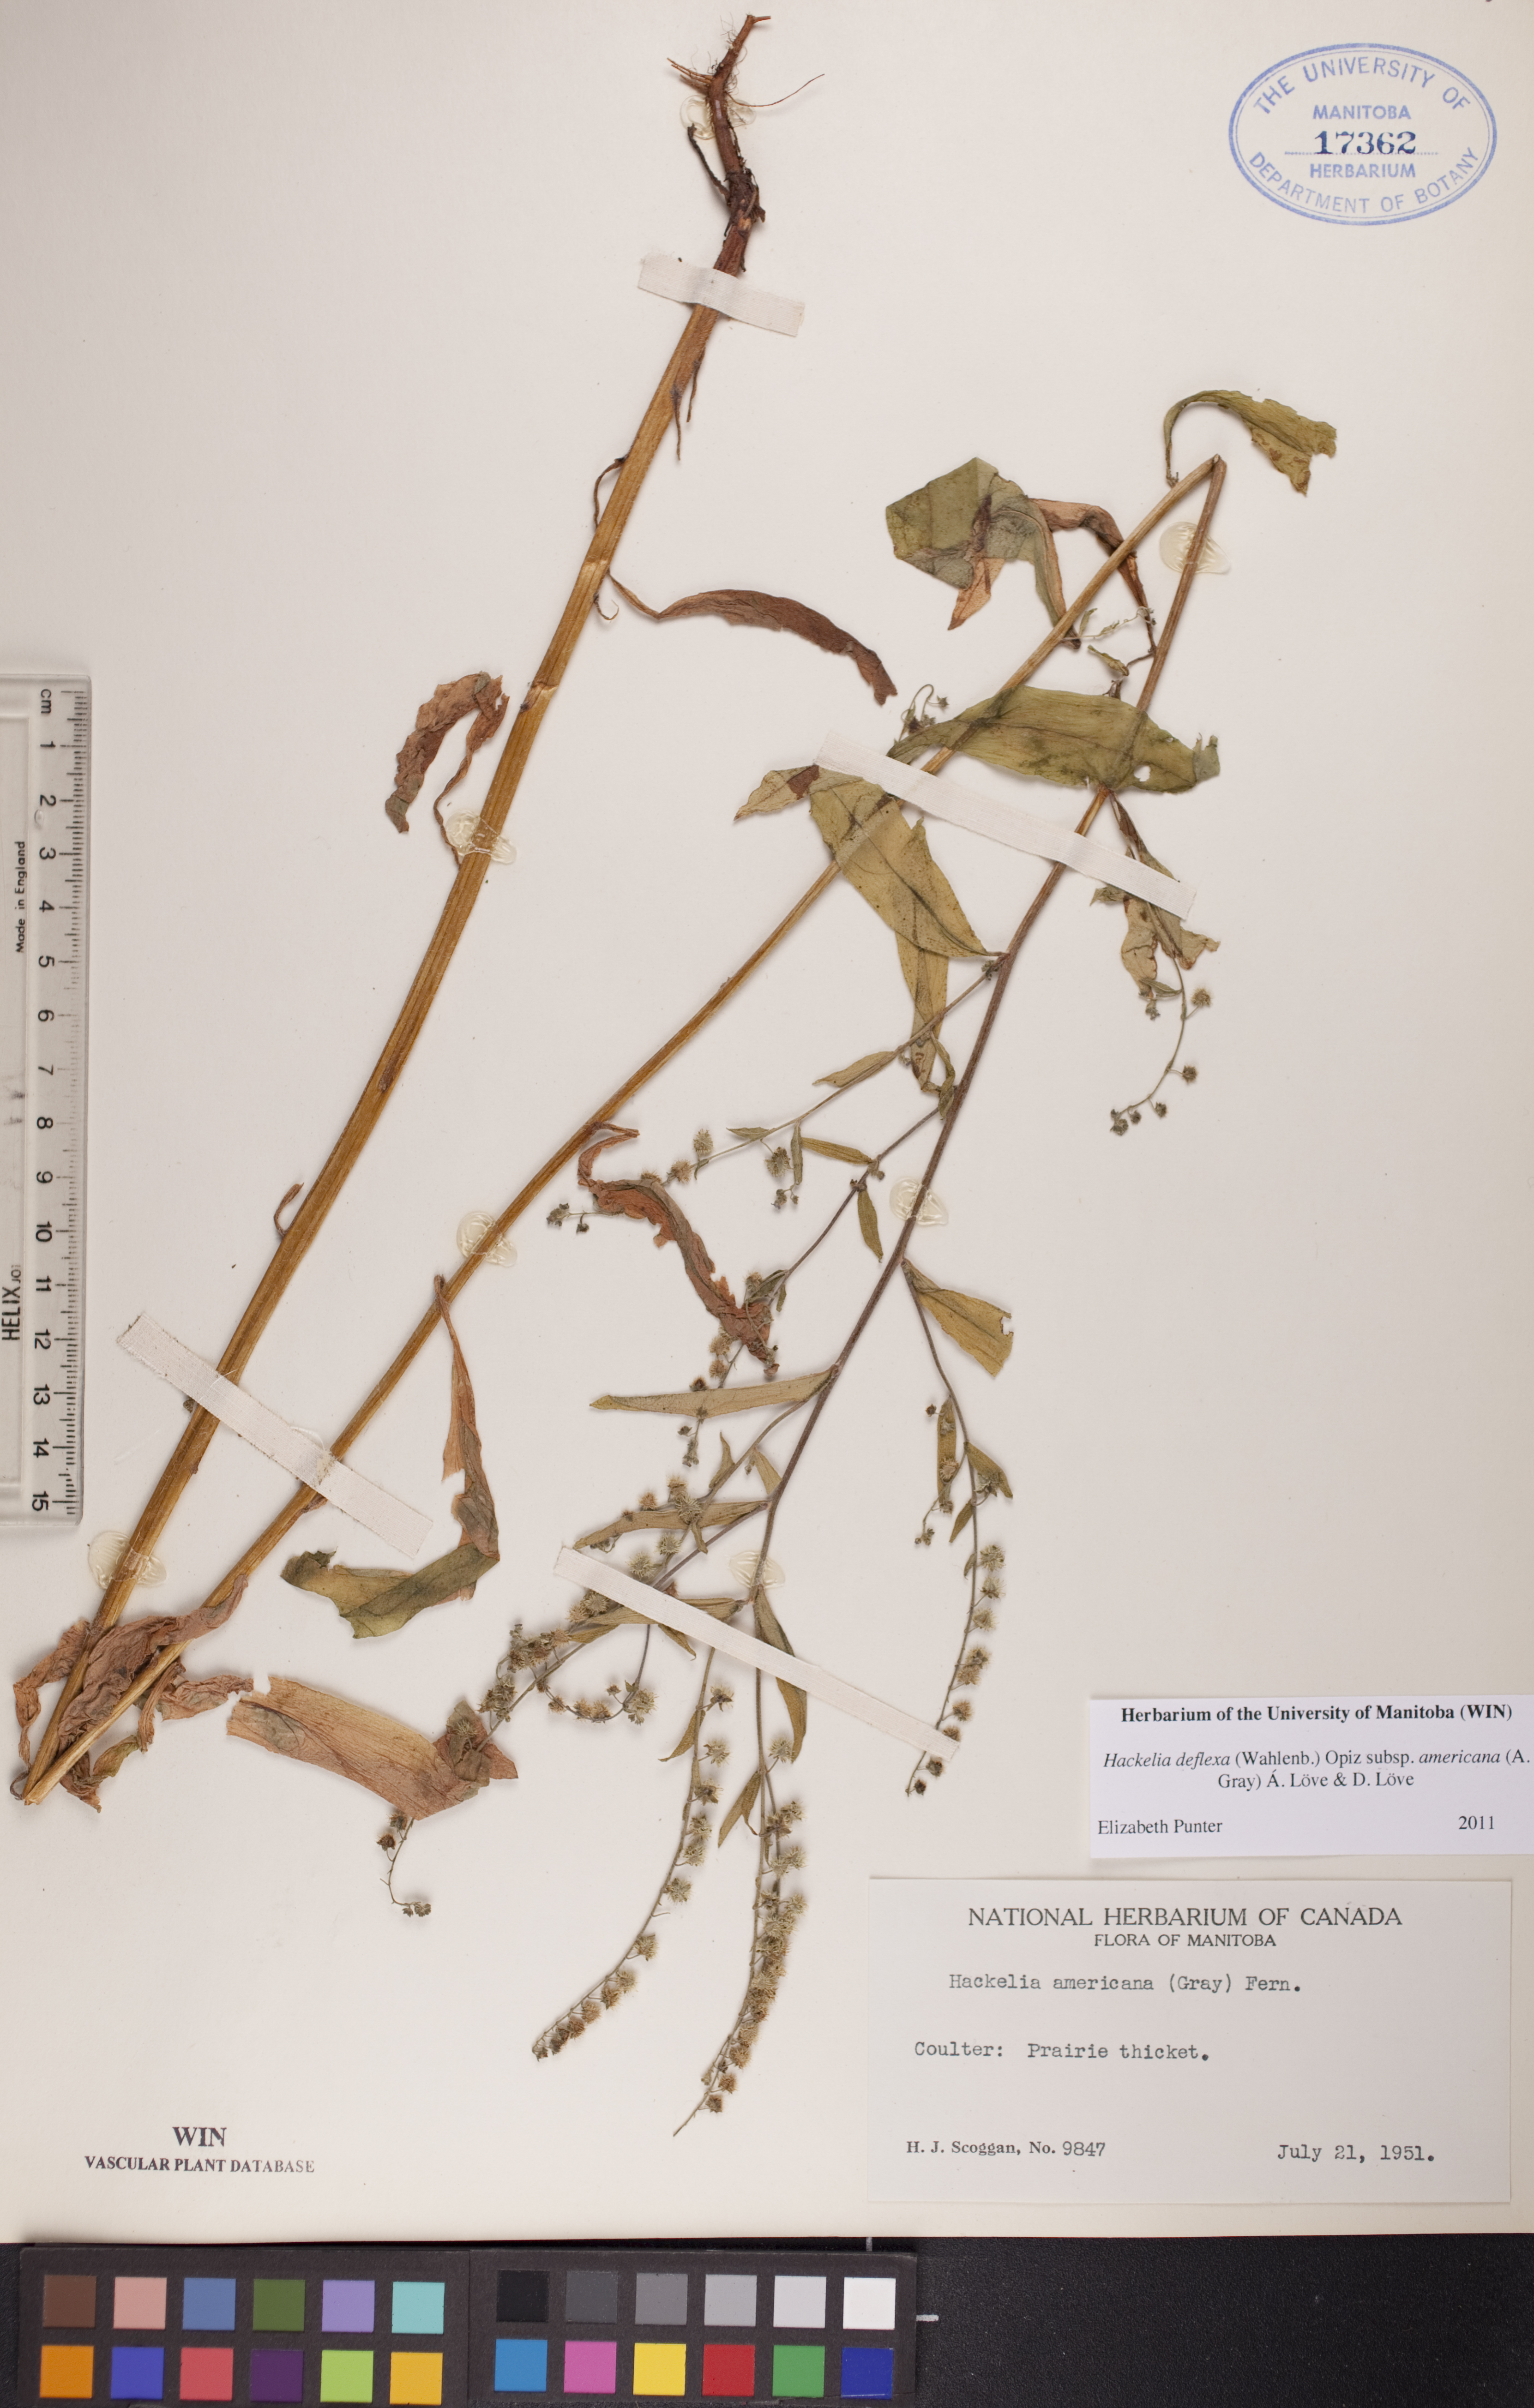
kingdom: Plantae
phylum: Tracheophyta
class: Magnoliopsida
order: Boraginales
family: Boraginaceae
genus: Hackelia
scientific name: Hackelia deflexa
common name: Nodding stickseed
